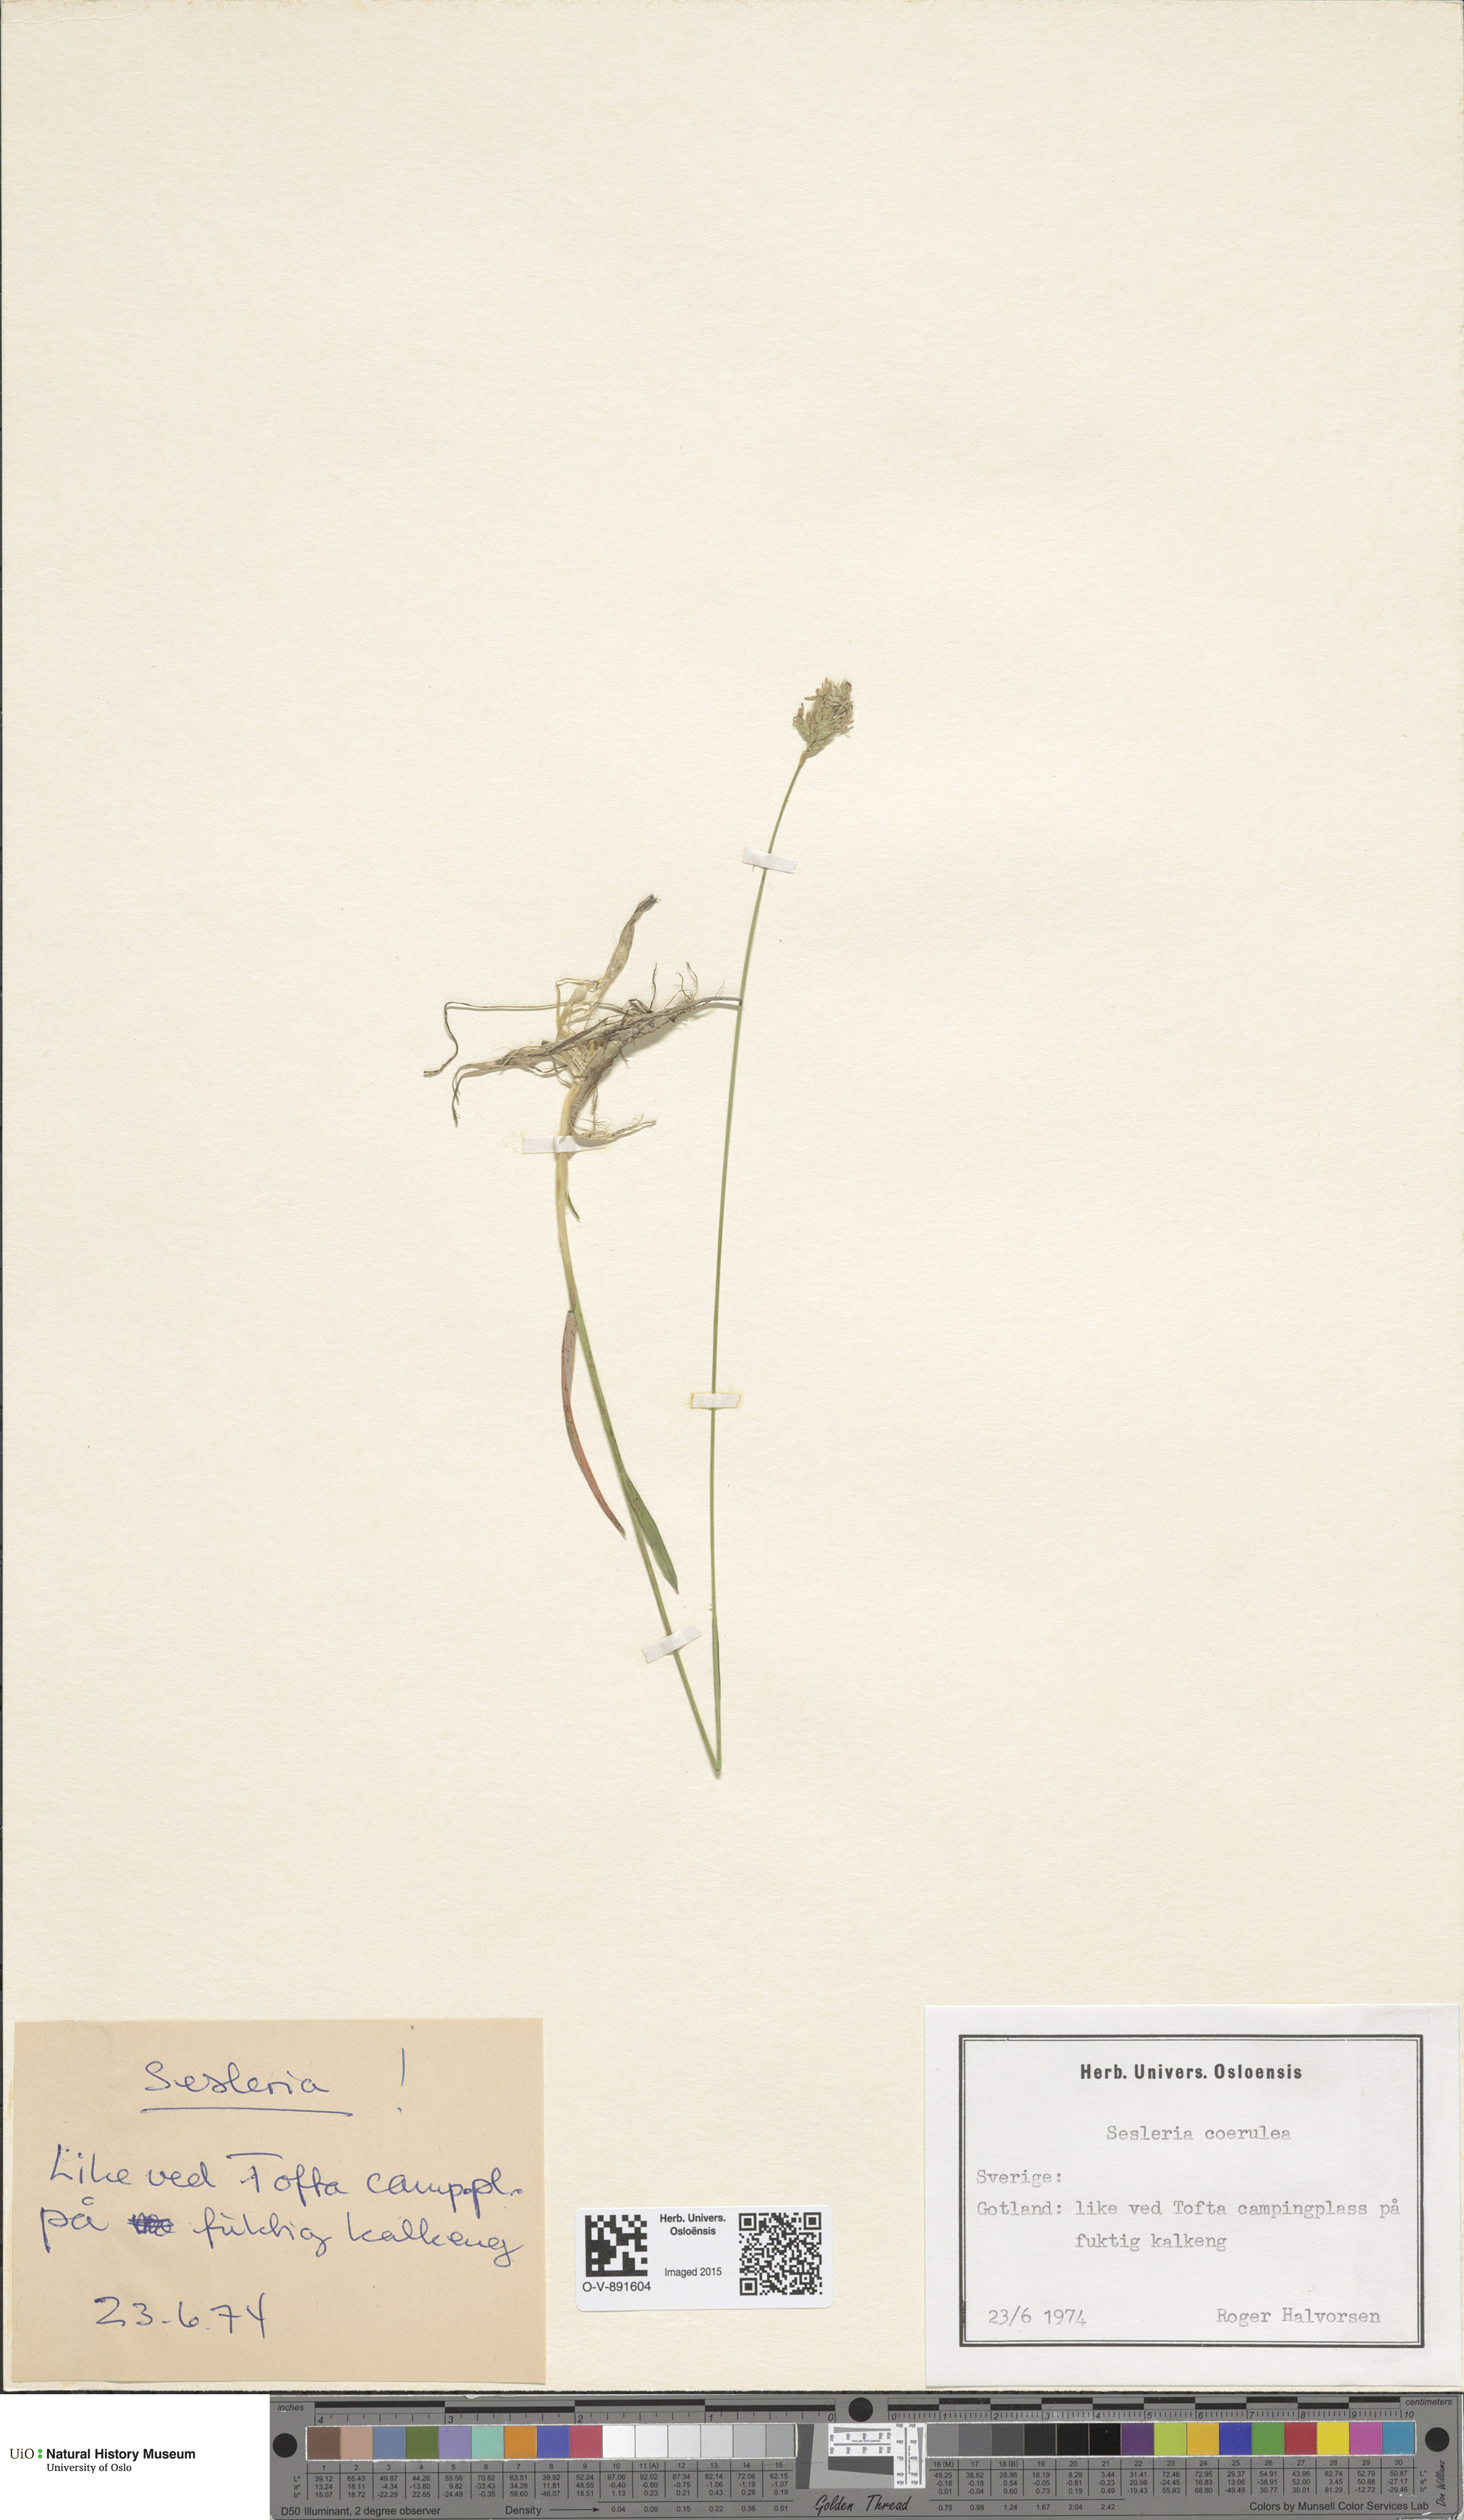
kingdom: Plantae
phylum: Tracheophyta
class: Liliopsida
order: Poales
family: Poaceae
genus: Sesleria
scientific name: Sesleria uliginosa
